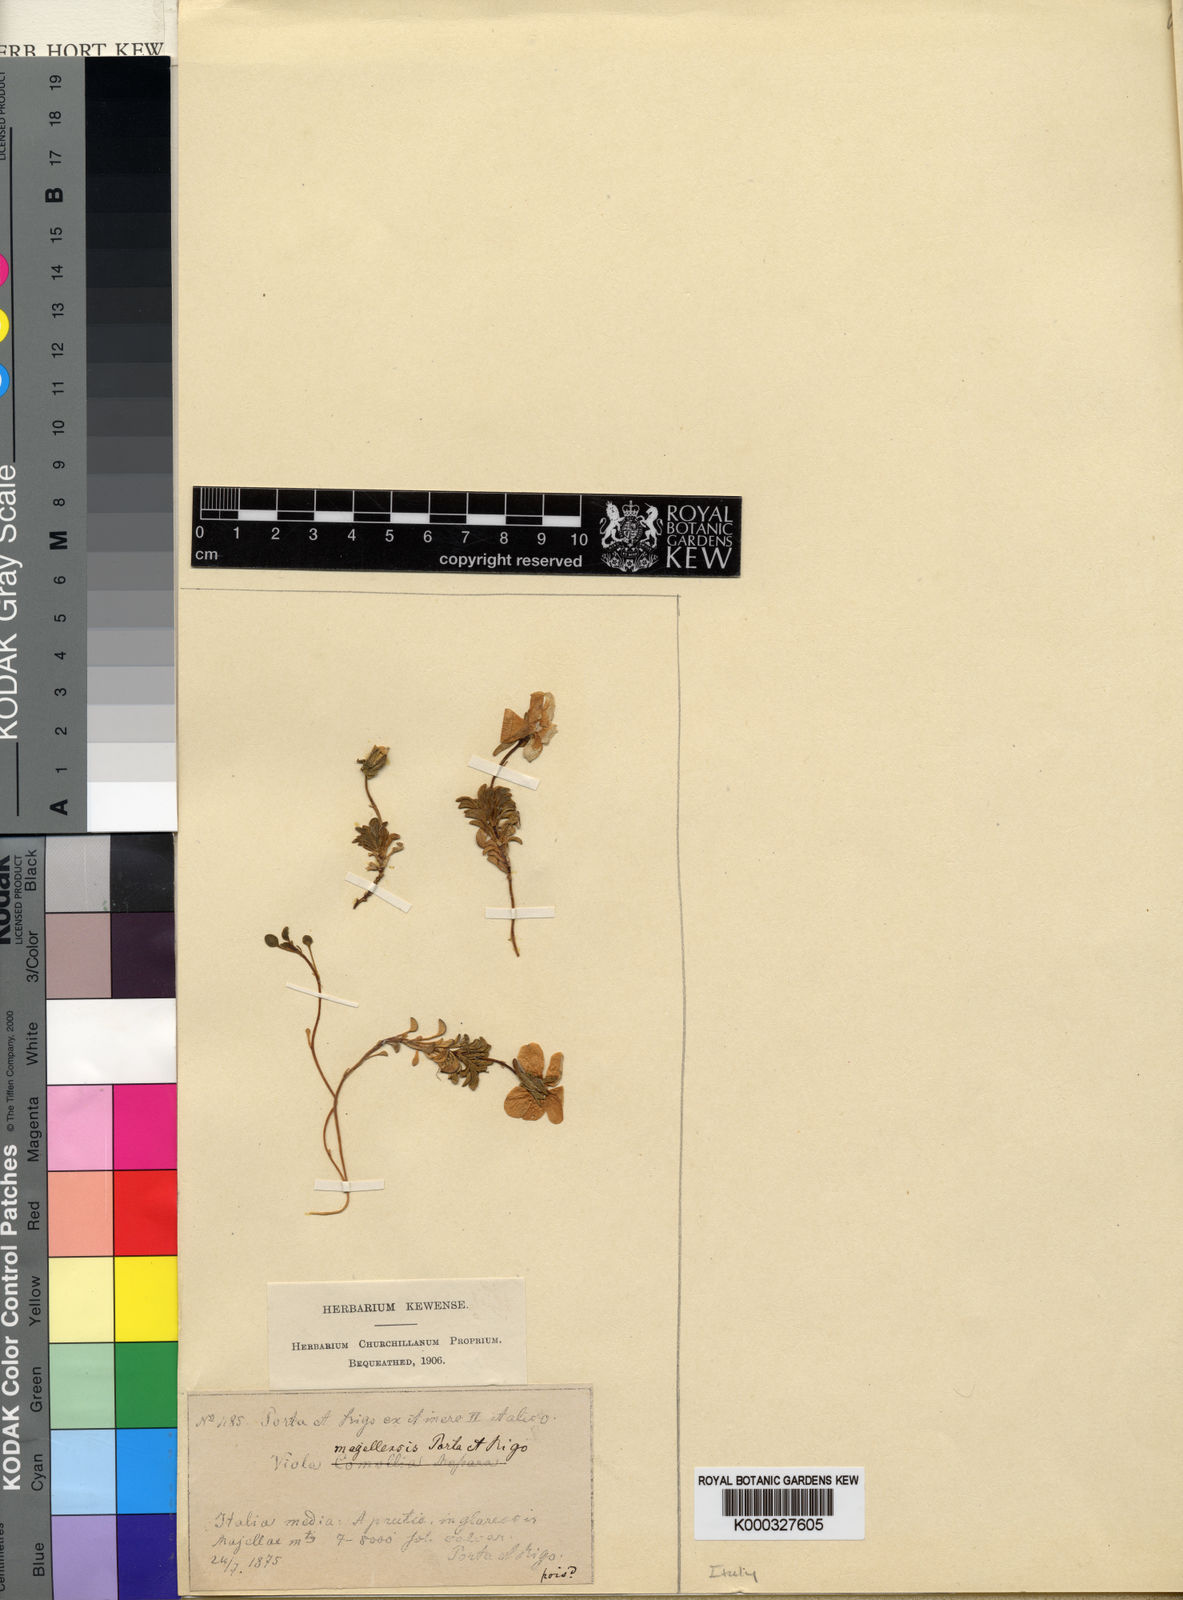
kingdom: Plantae
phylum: Tracheophyta
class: Magnoliopsida
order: Malpighiales
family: Violaceae
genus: Viola
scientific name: Viola magellensis
